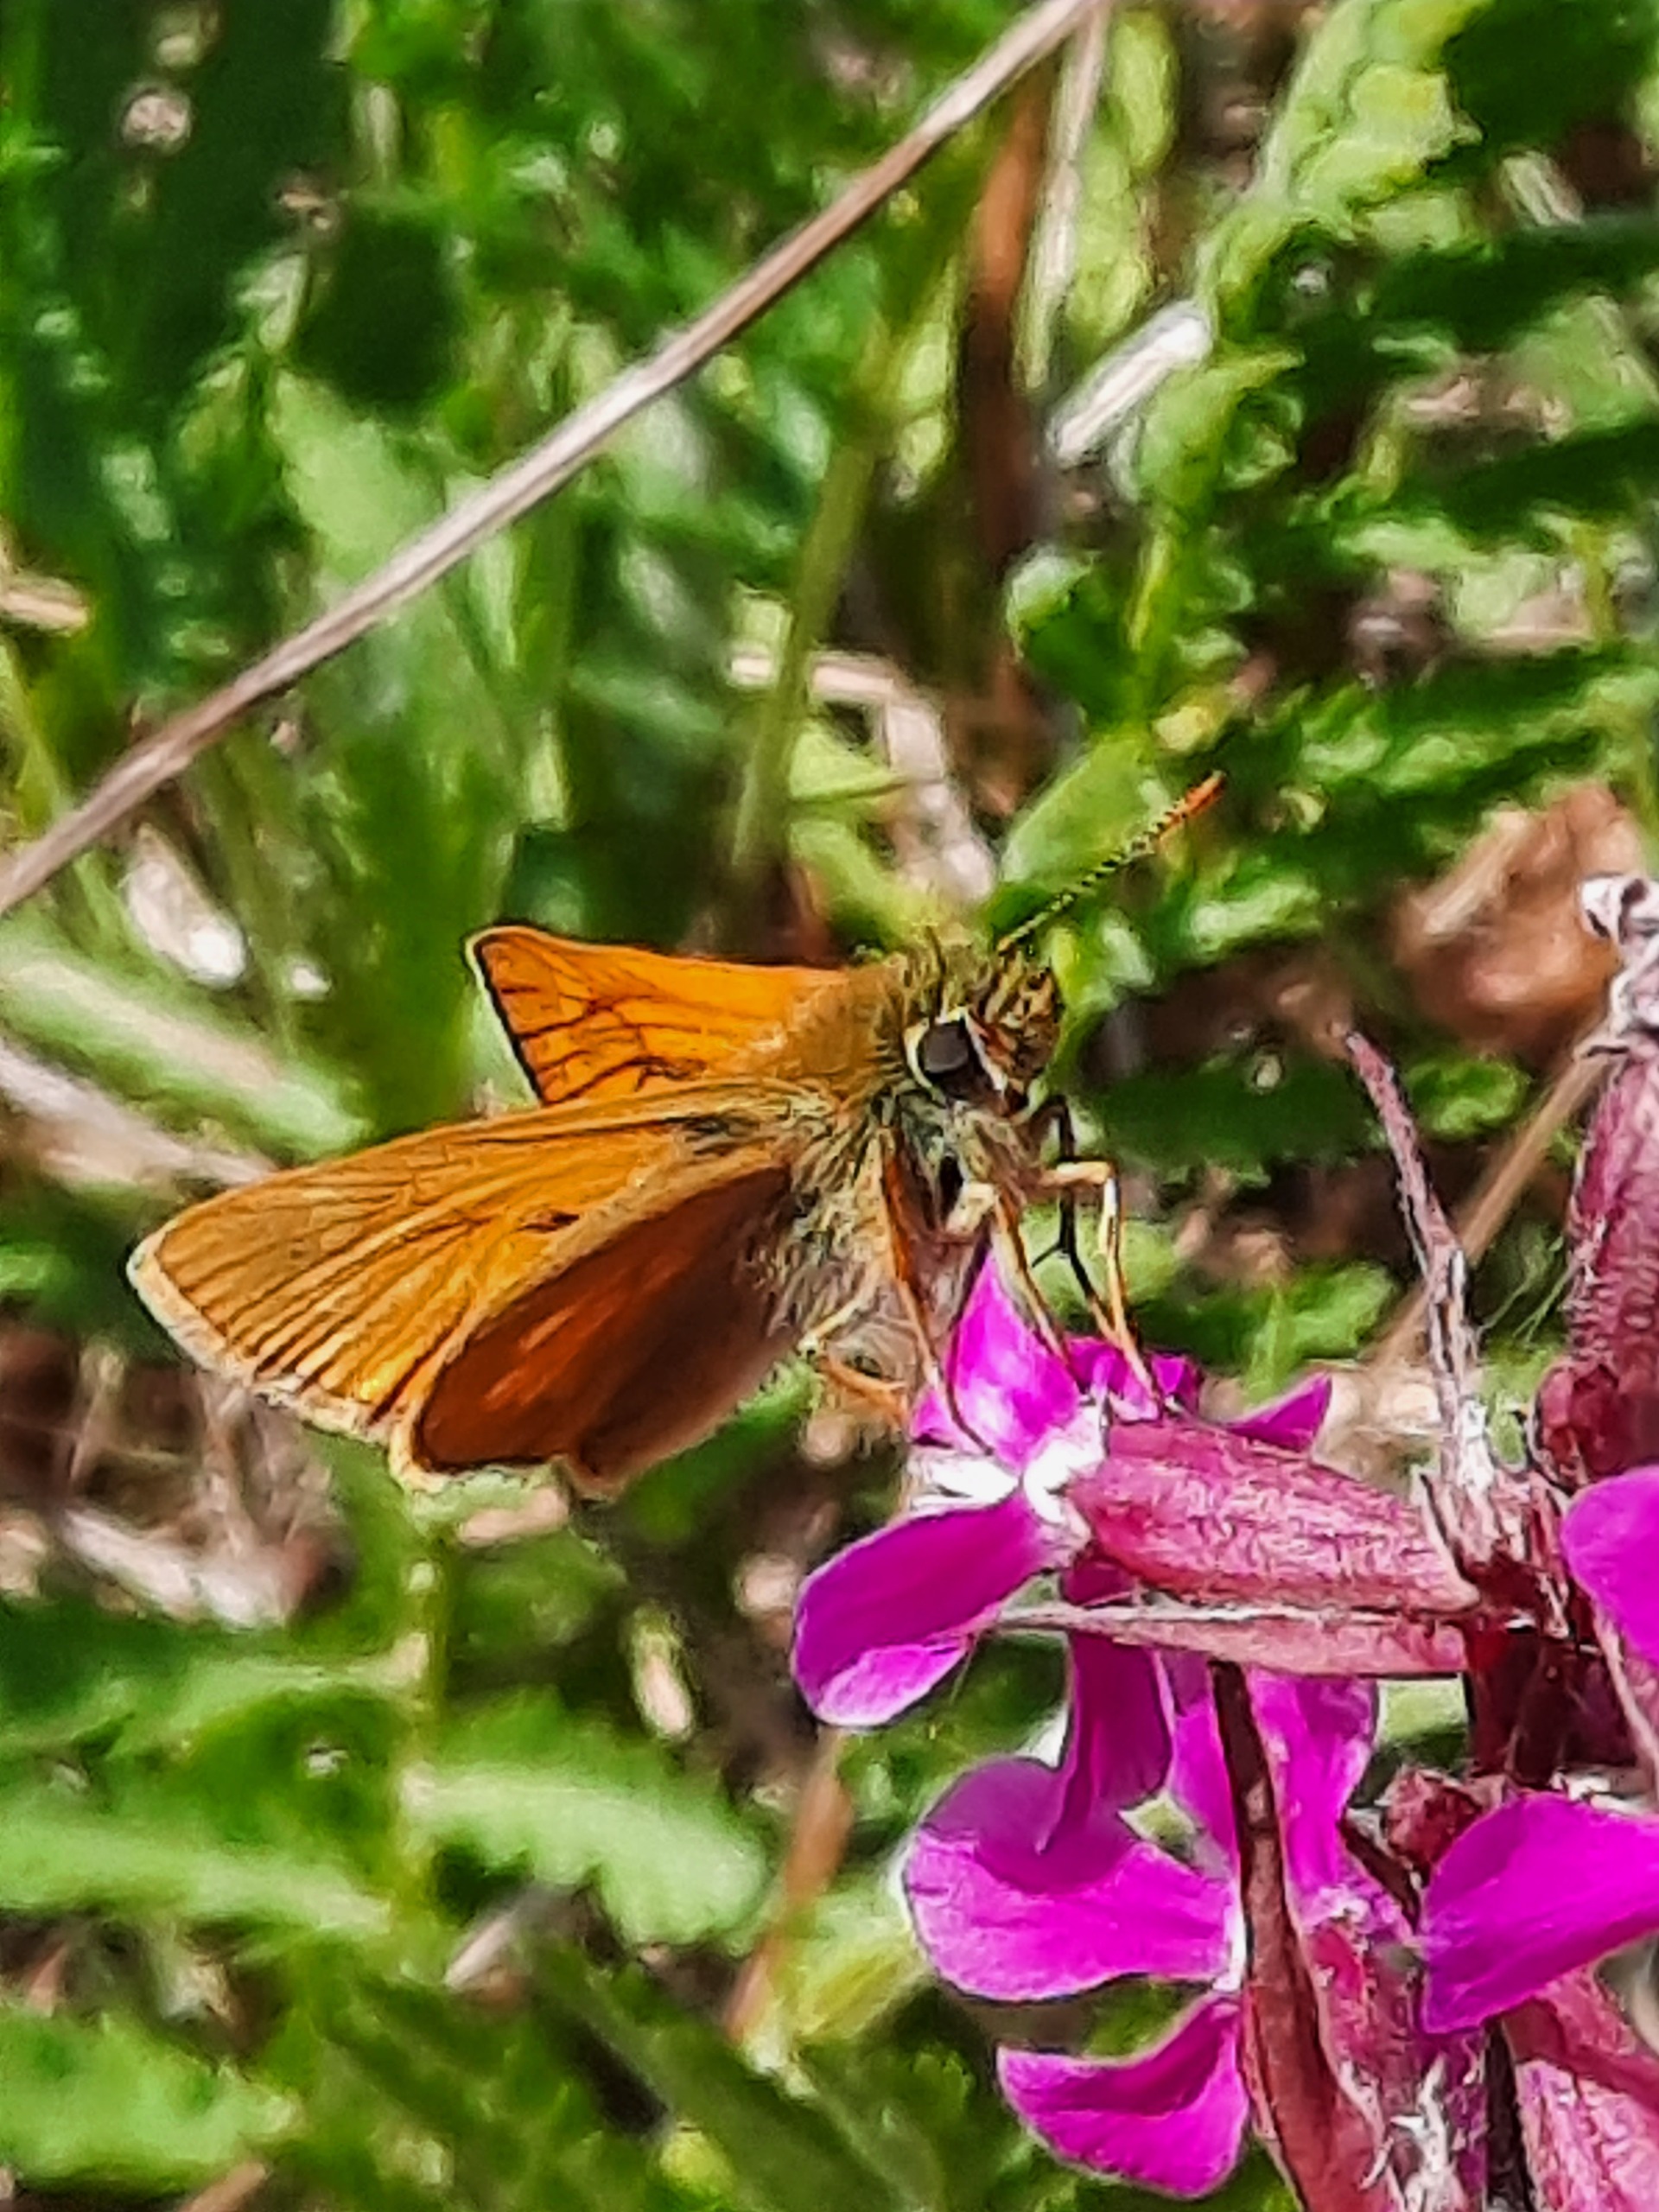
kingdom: Animalia
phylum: Arthropoda
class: Insecta
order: Lepidoptera
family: Hesperiidae
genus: Ochlodes
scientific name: Ochlodes venata
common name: Stor bredpande
